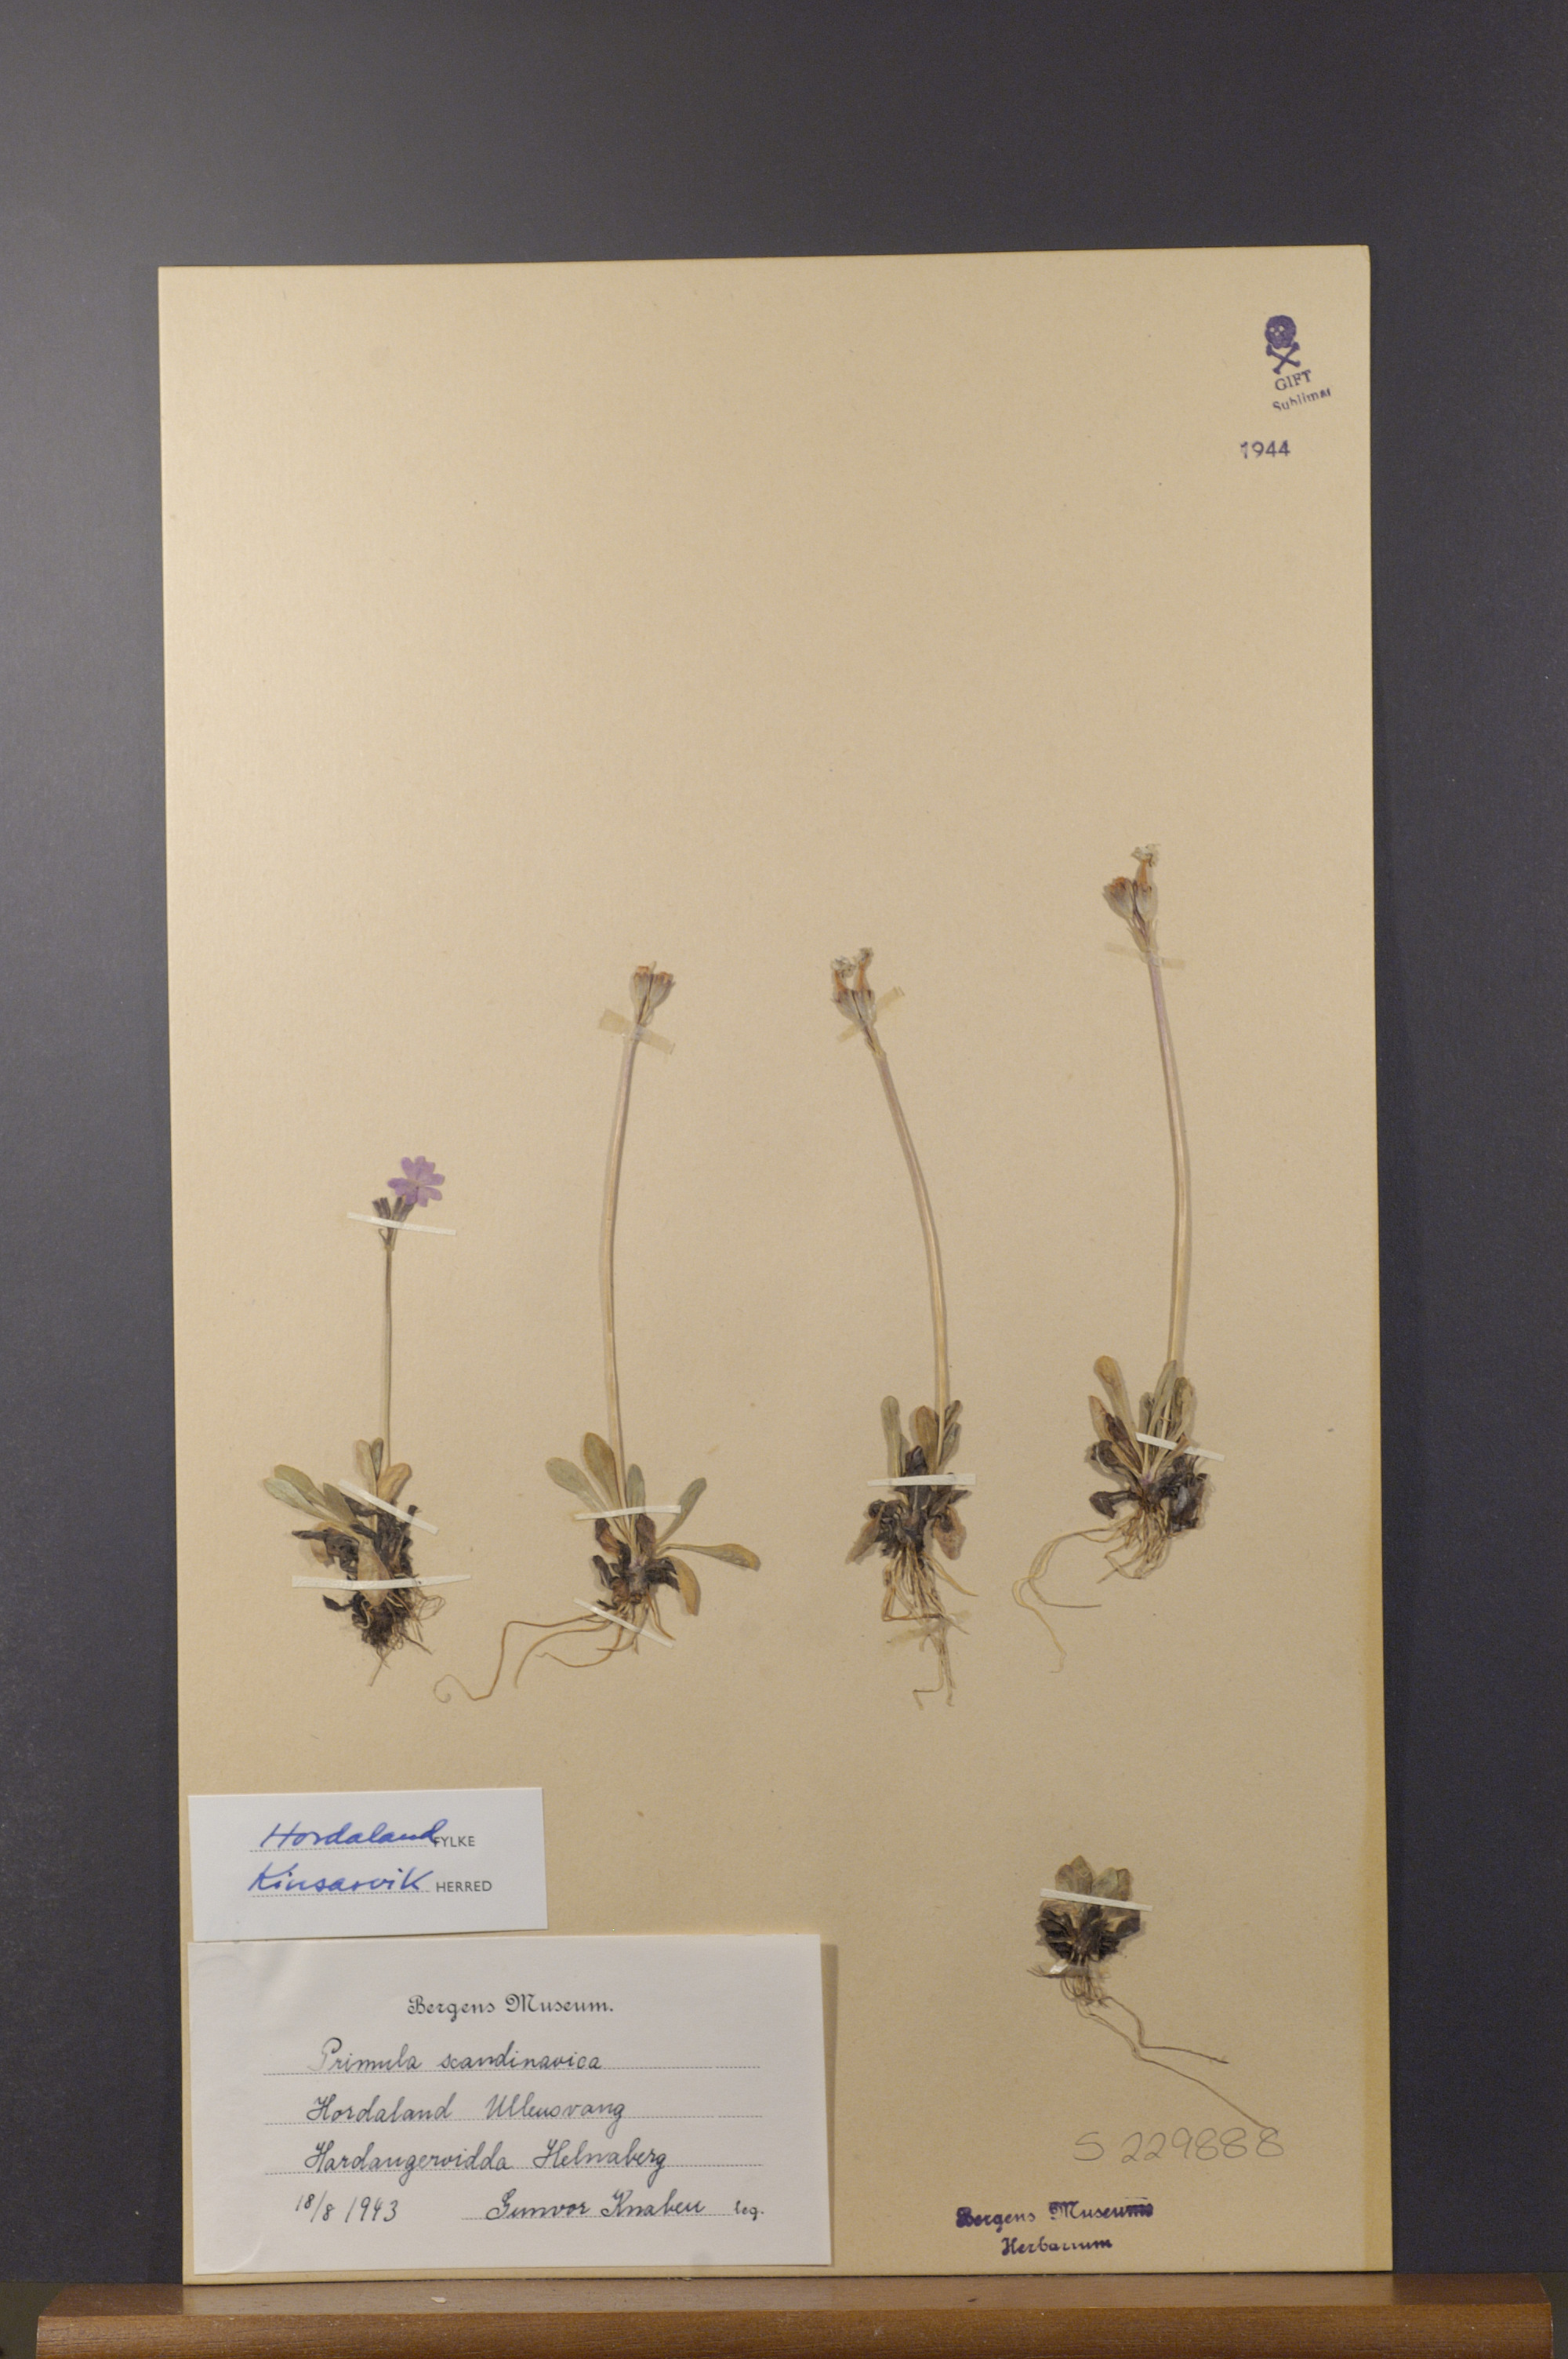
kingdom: Plantae
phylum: Tracheophyta
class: Magnoliopsida
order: Ericales
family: Primulaceae
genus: Primula
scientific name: Primula scandinavica
